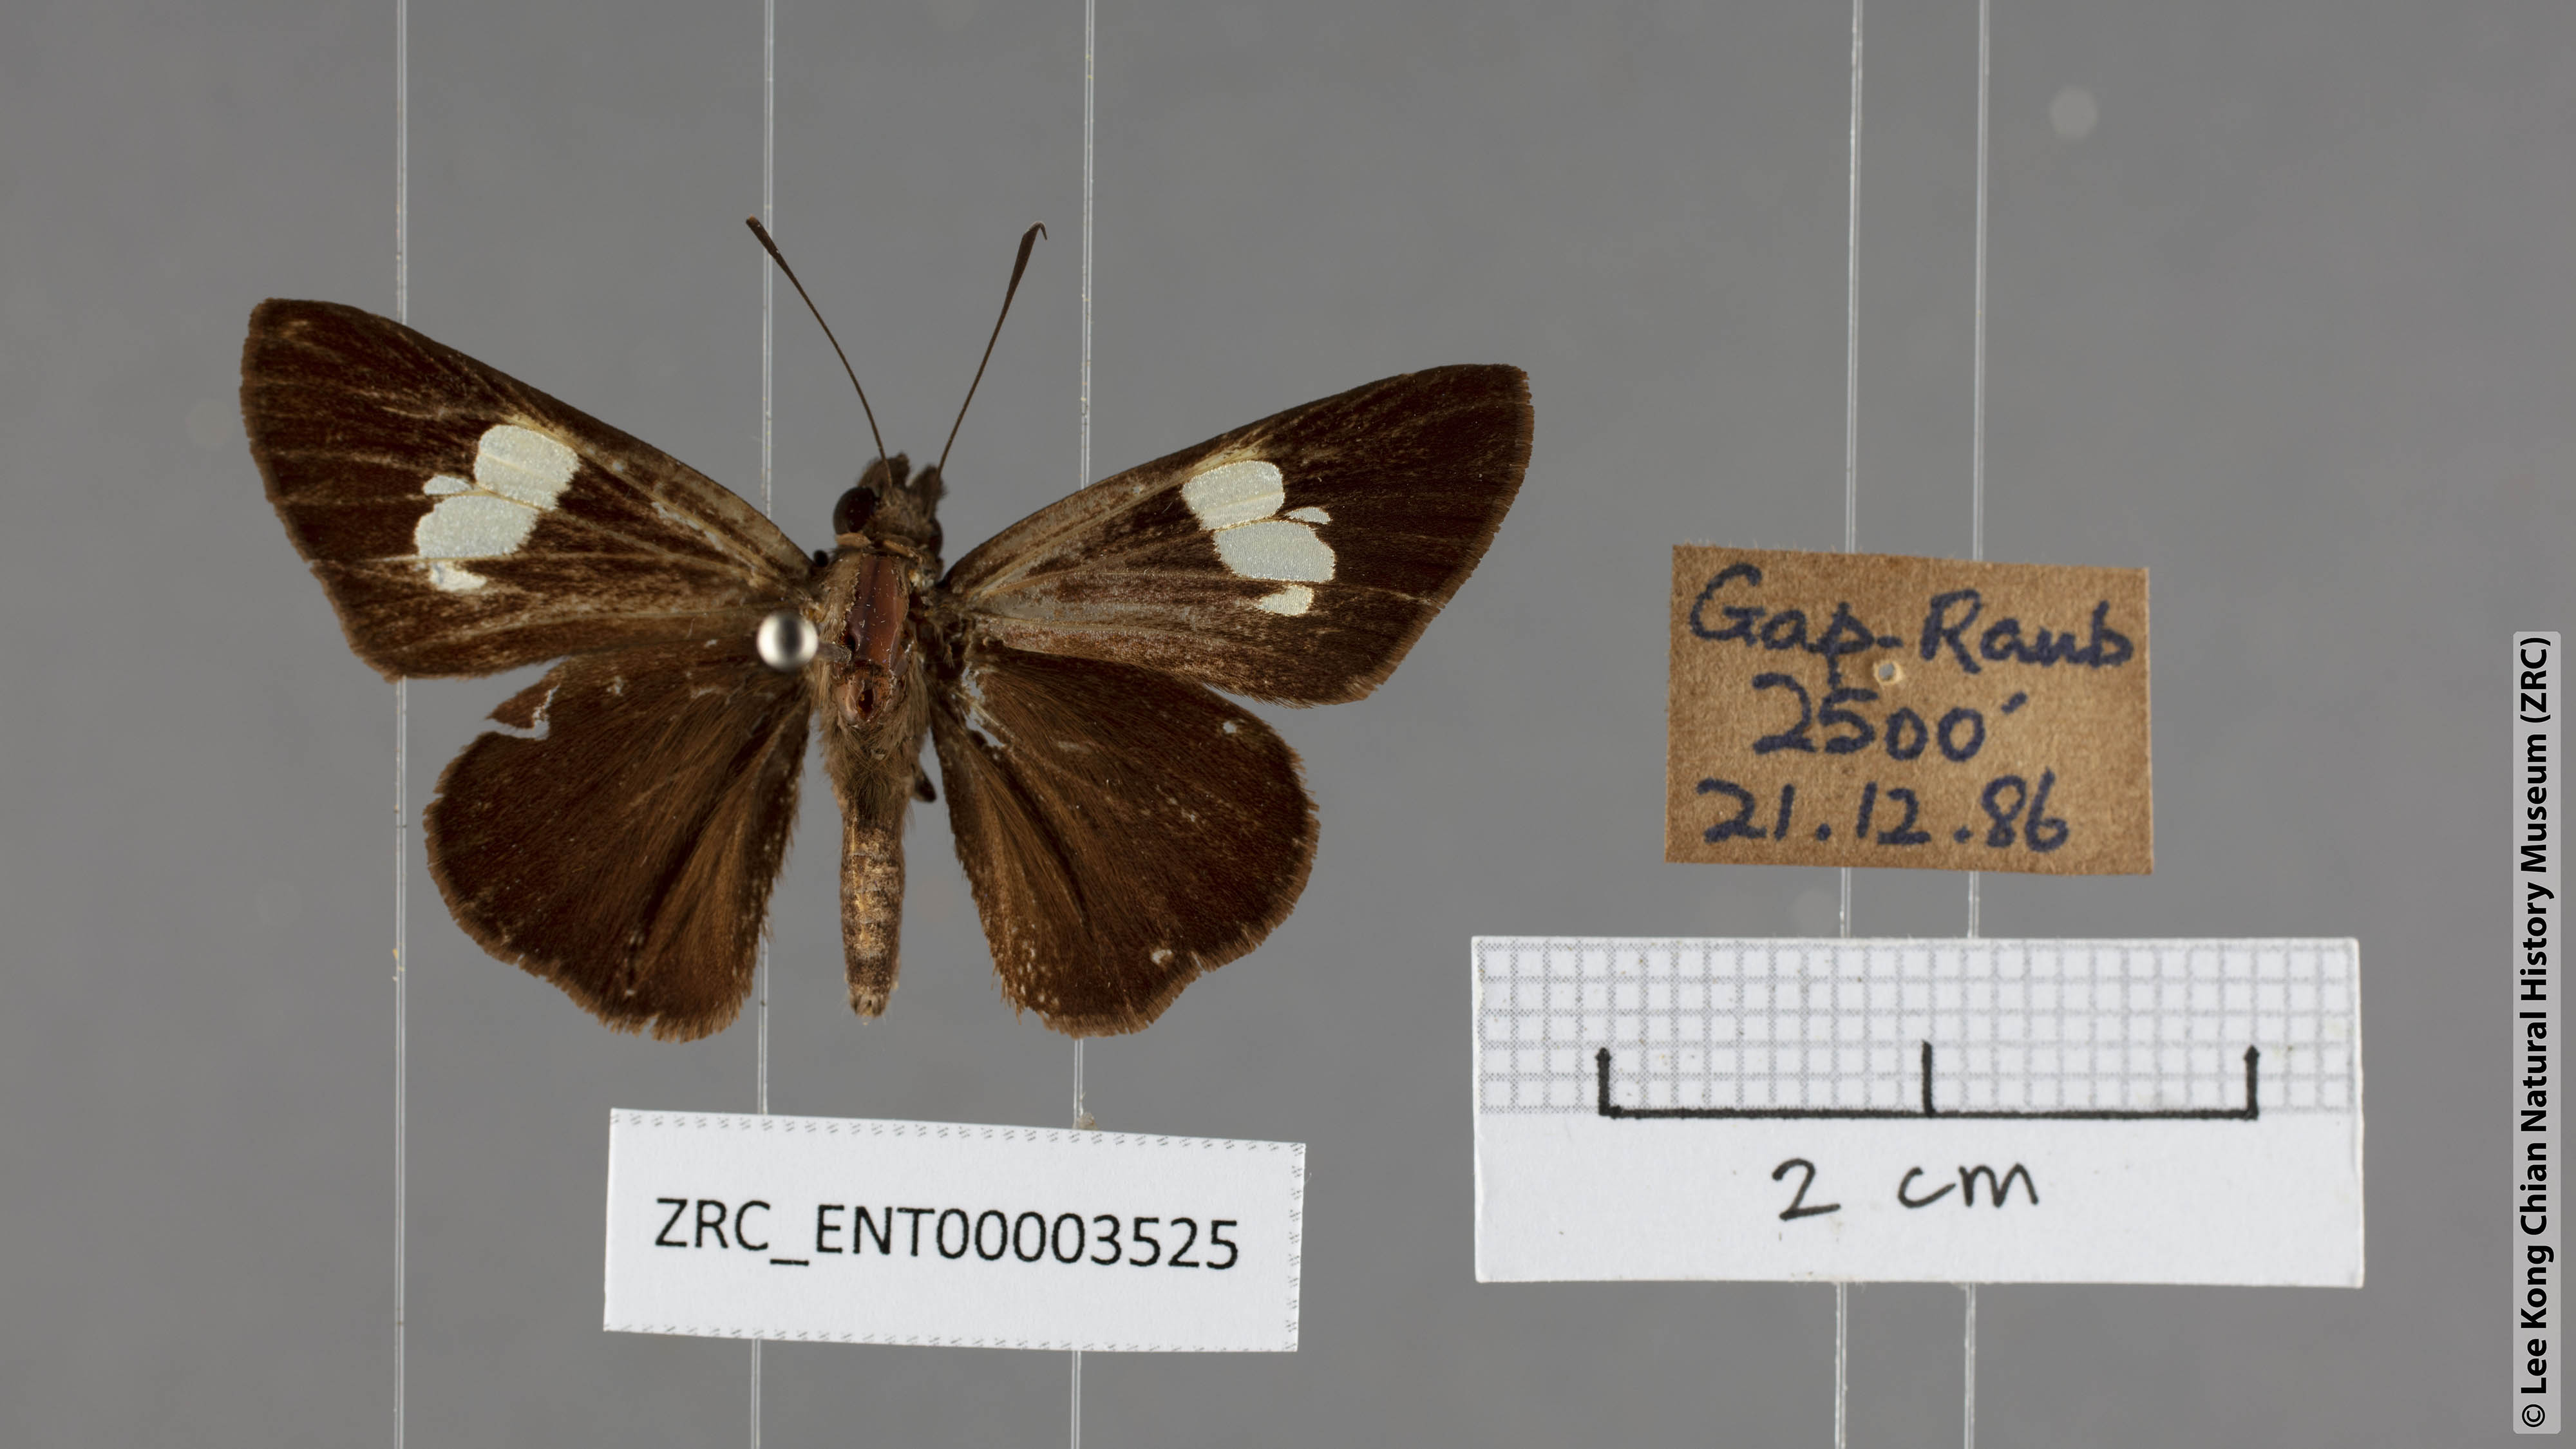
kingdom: Animalia
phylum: Arthropoda
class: Insecta
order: Lepidoptera
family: Hesperiidae
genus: Quedara
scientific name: Quedara monteithi
